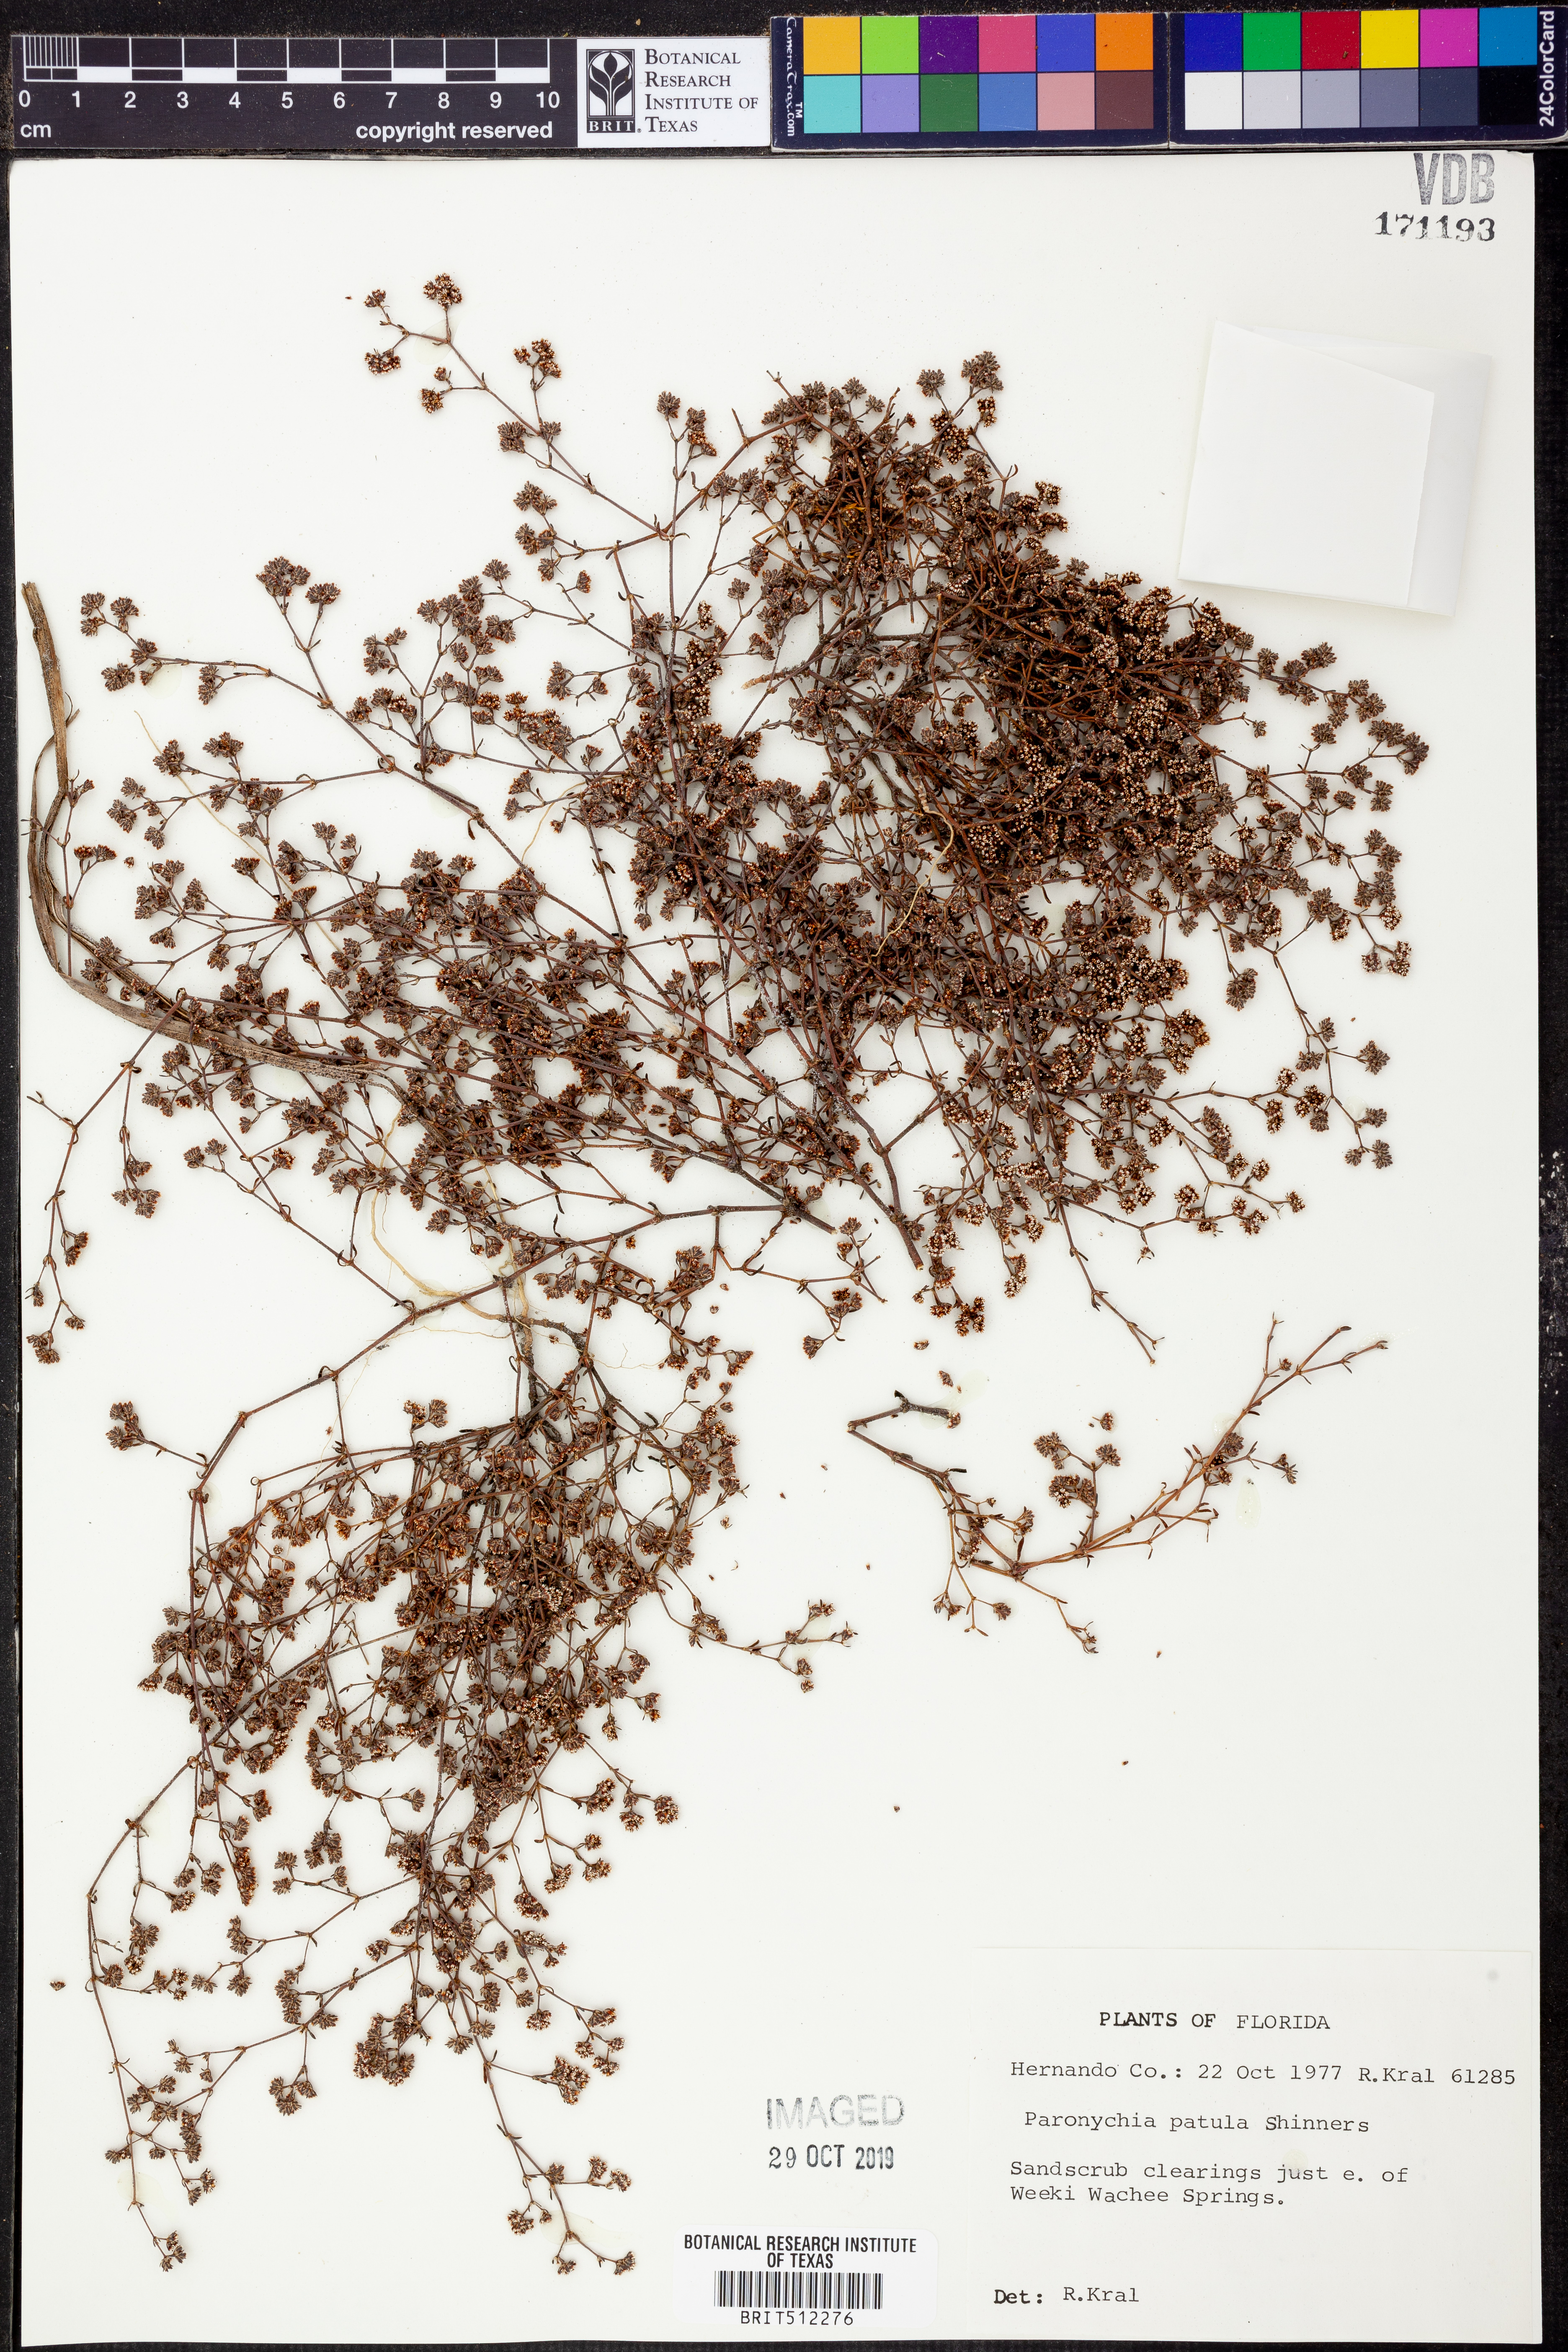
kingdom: Plantae
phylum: Tracheophyta
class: Magnoliopsida
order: Caryophyllales
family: Caryophyllaceae
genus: Paronychia
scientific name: Paronychia patula
